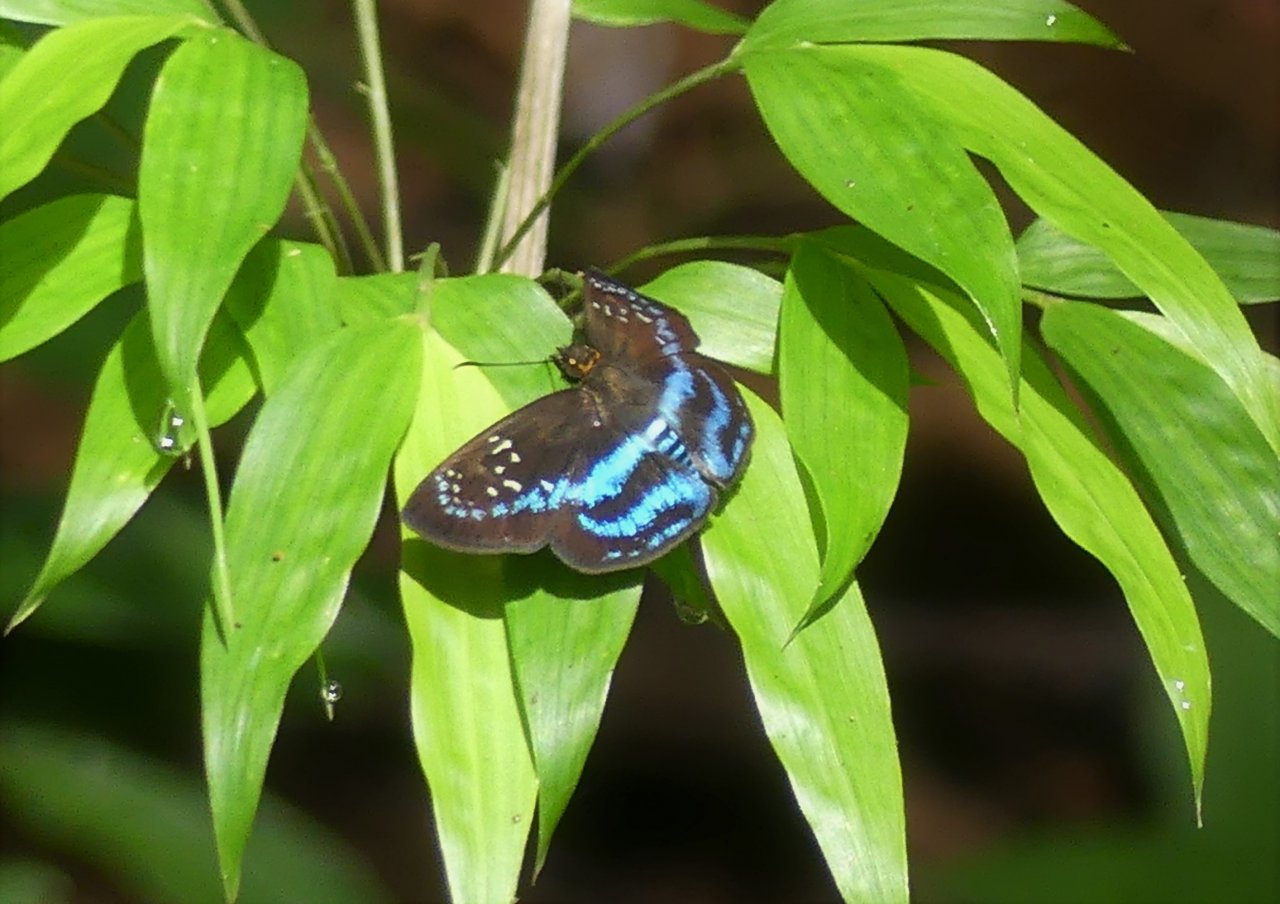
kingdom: Animalia
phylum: Arthropoda
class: Insecta
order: Lepidoptera
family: Hesperiidae
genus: Quadrus
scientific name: Quadrus contubernalis
